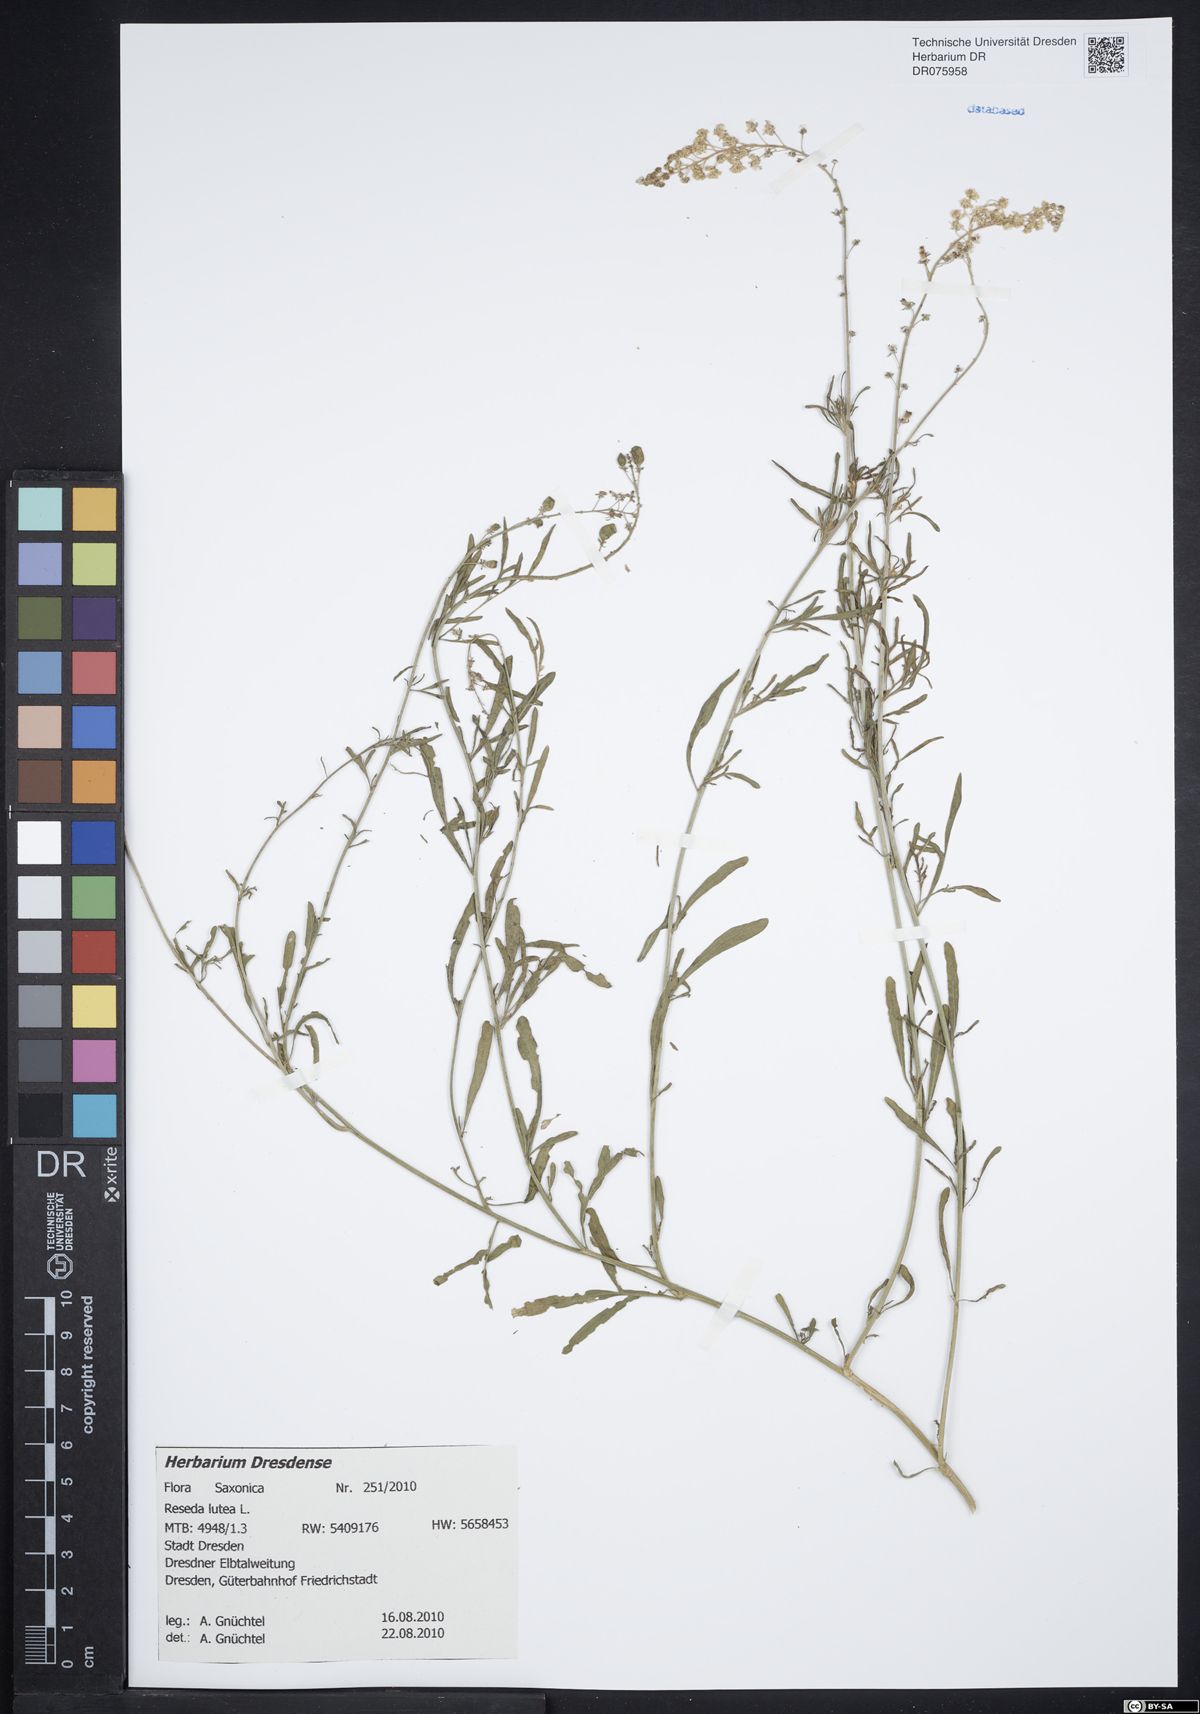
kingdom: Plantae
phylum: Tracheophyta
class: Magnoliopsida
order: Brassicales
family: Resedaceae
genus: Reseda
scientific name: Reseda lutea
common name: Wild mignonette
